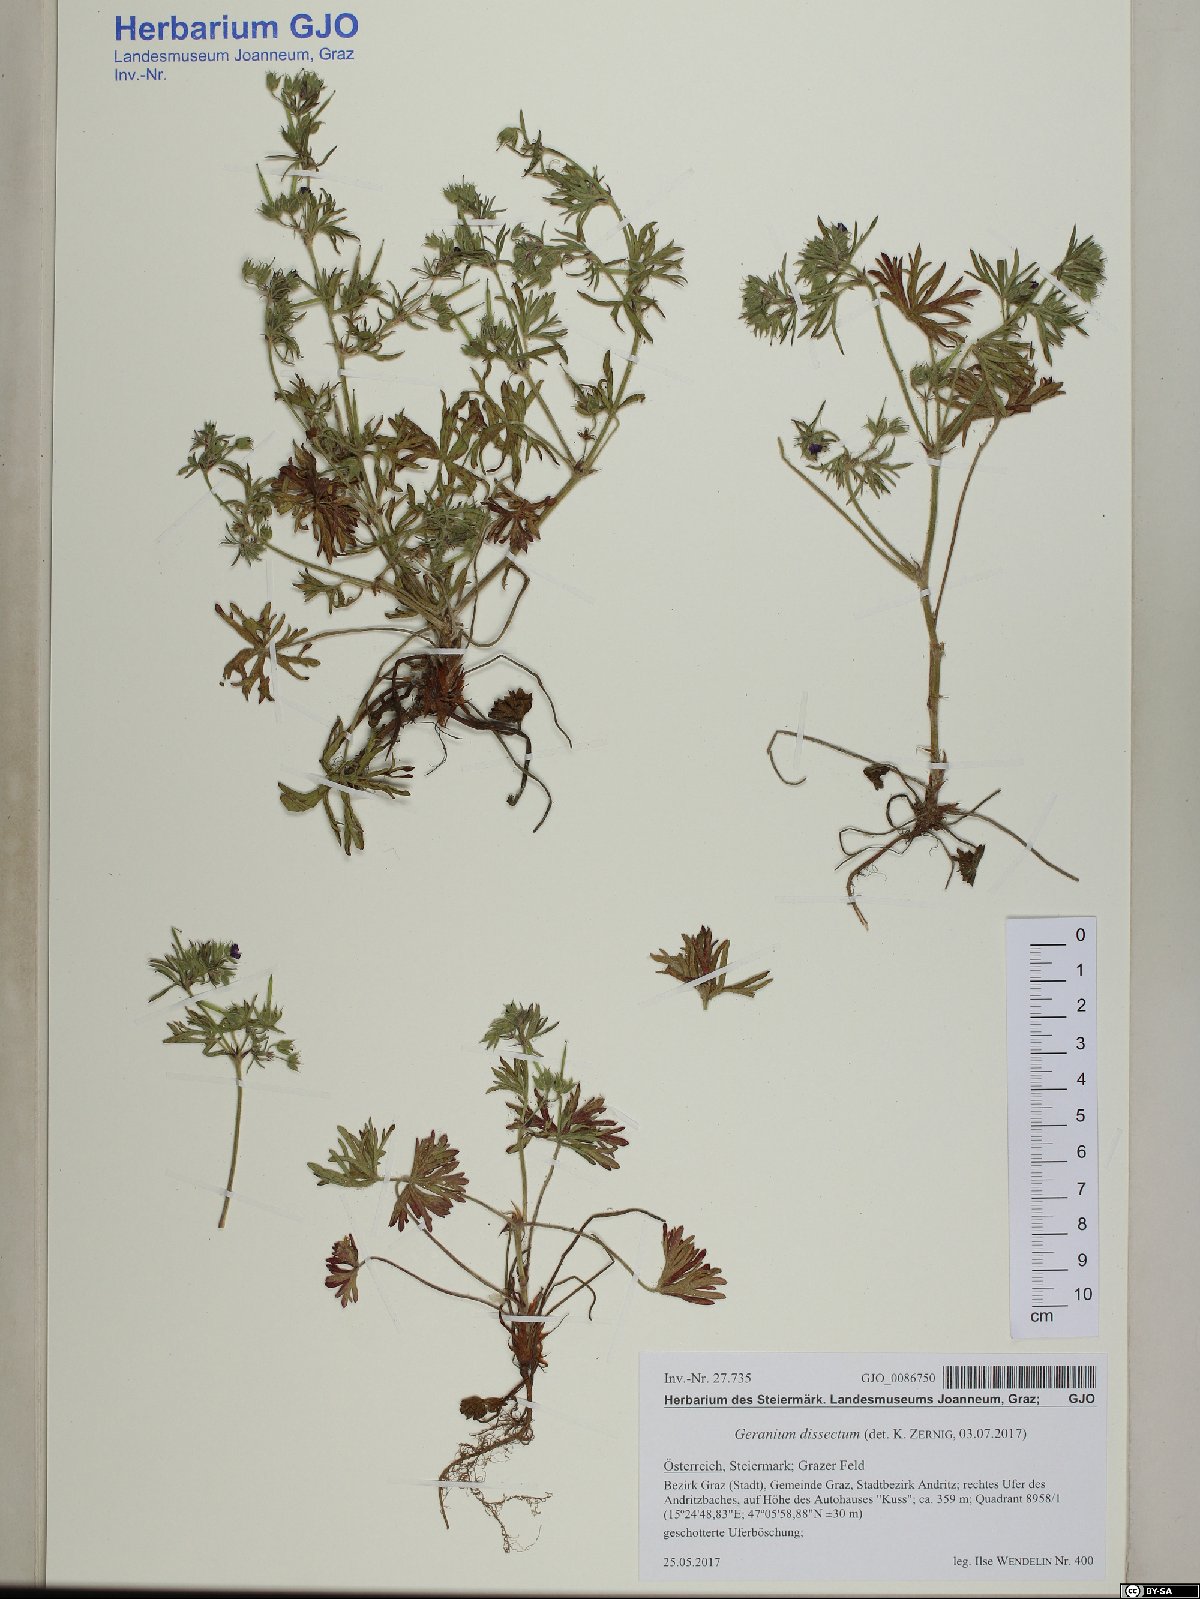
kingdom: Plantae
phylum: Tracheophyta
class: Magnoliopsida
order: Geraniales
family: Geraniaceae
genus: Geranium
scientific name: Geranium dissectum
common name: Cut-leaved crane's-bill
